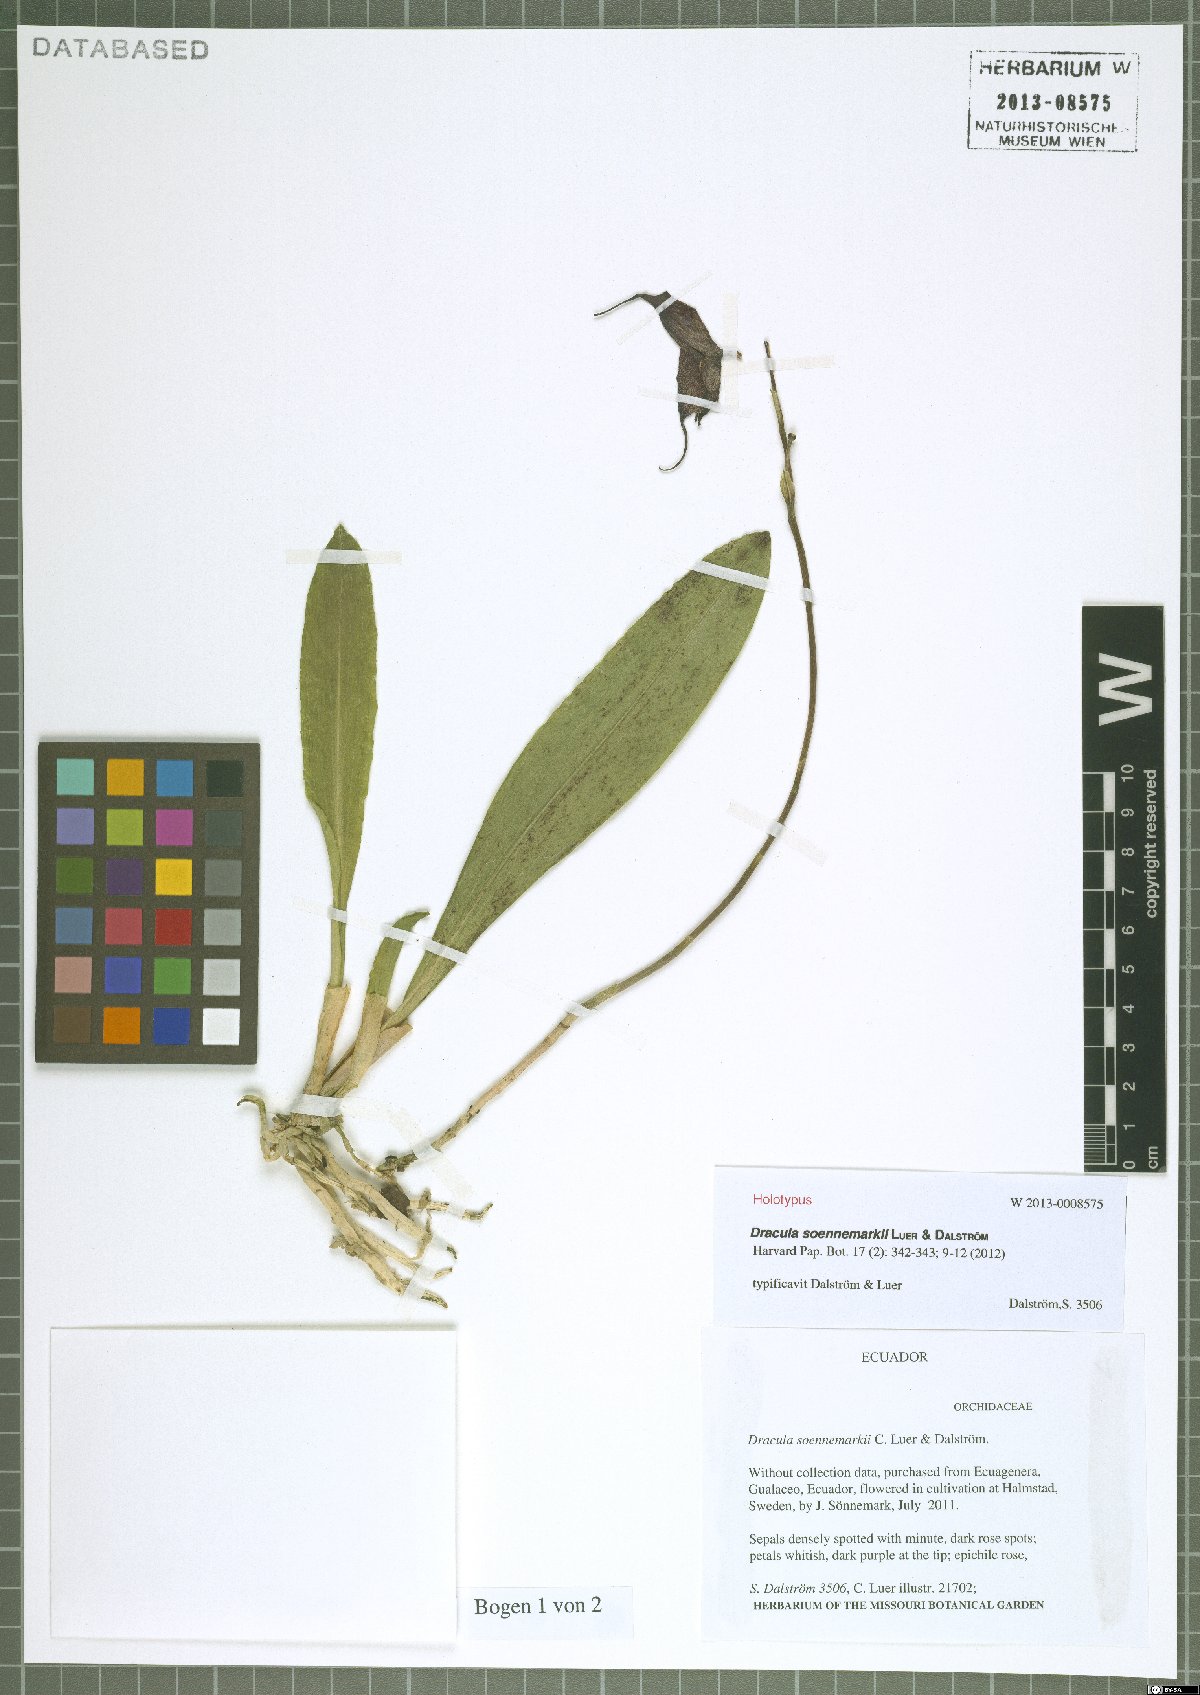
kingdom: Plantae
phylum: Tracheophyta
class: Liliopsida
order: Asparagales
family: Orchidaceae
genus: Dracula
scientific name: Dracula soennemarkii
